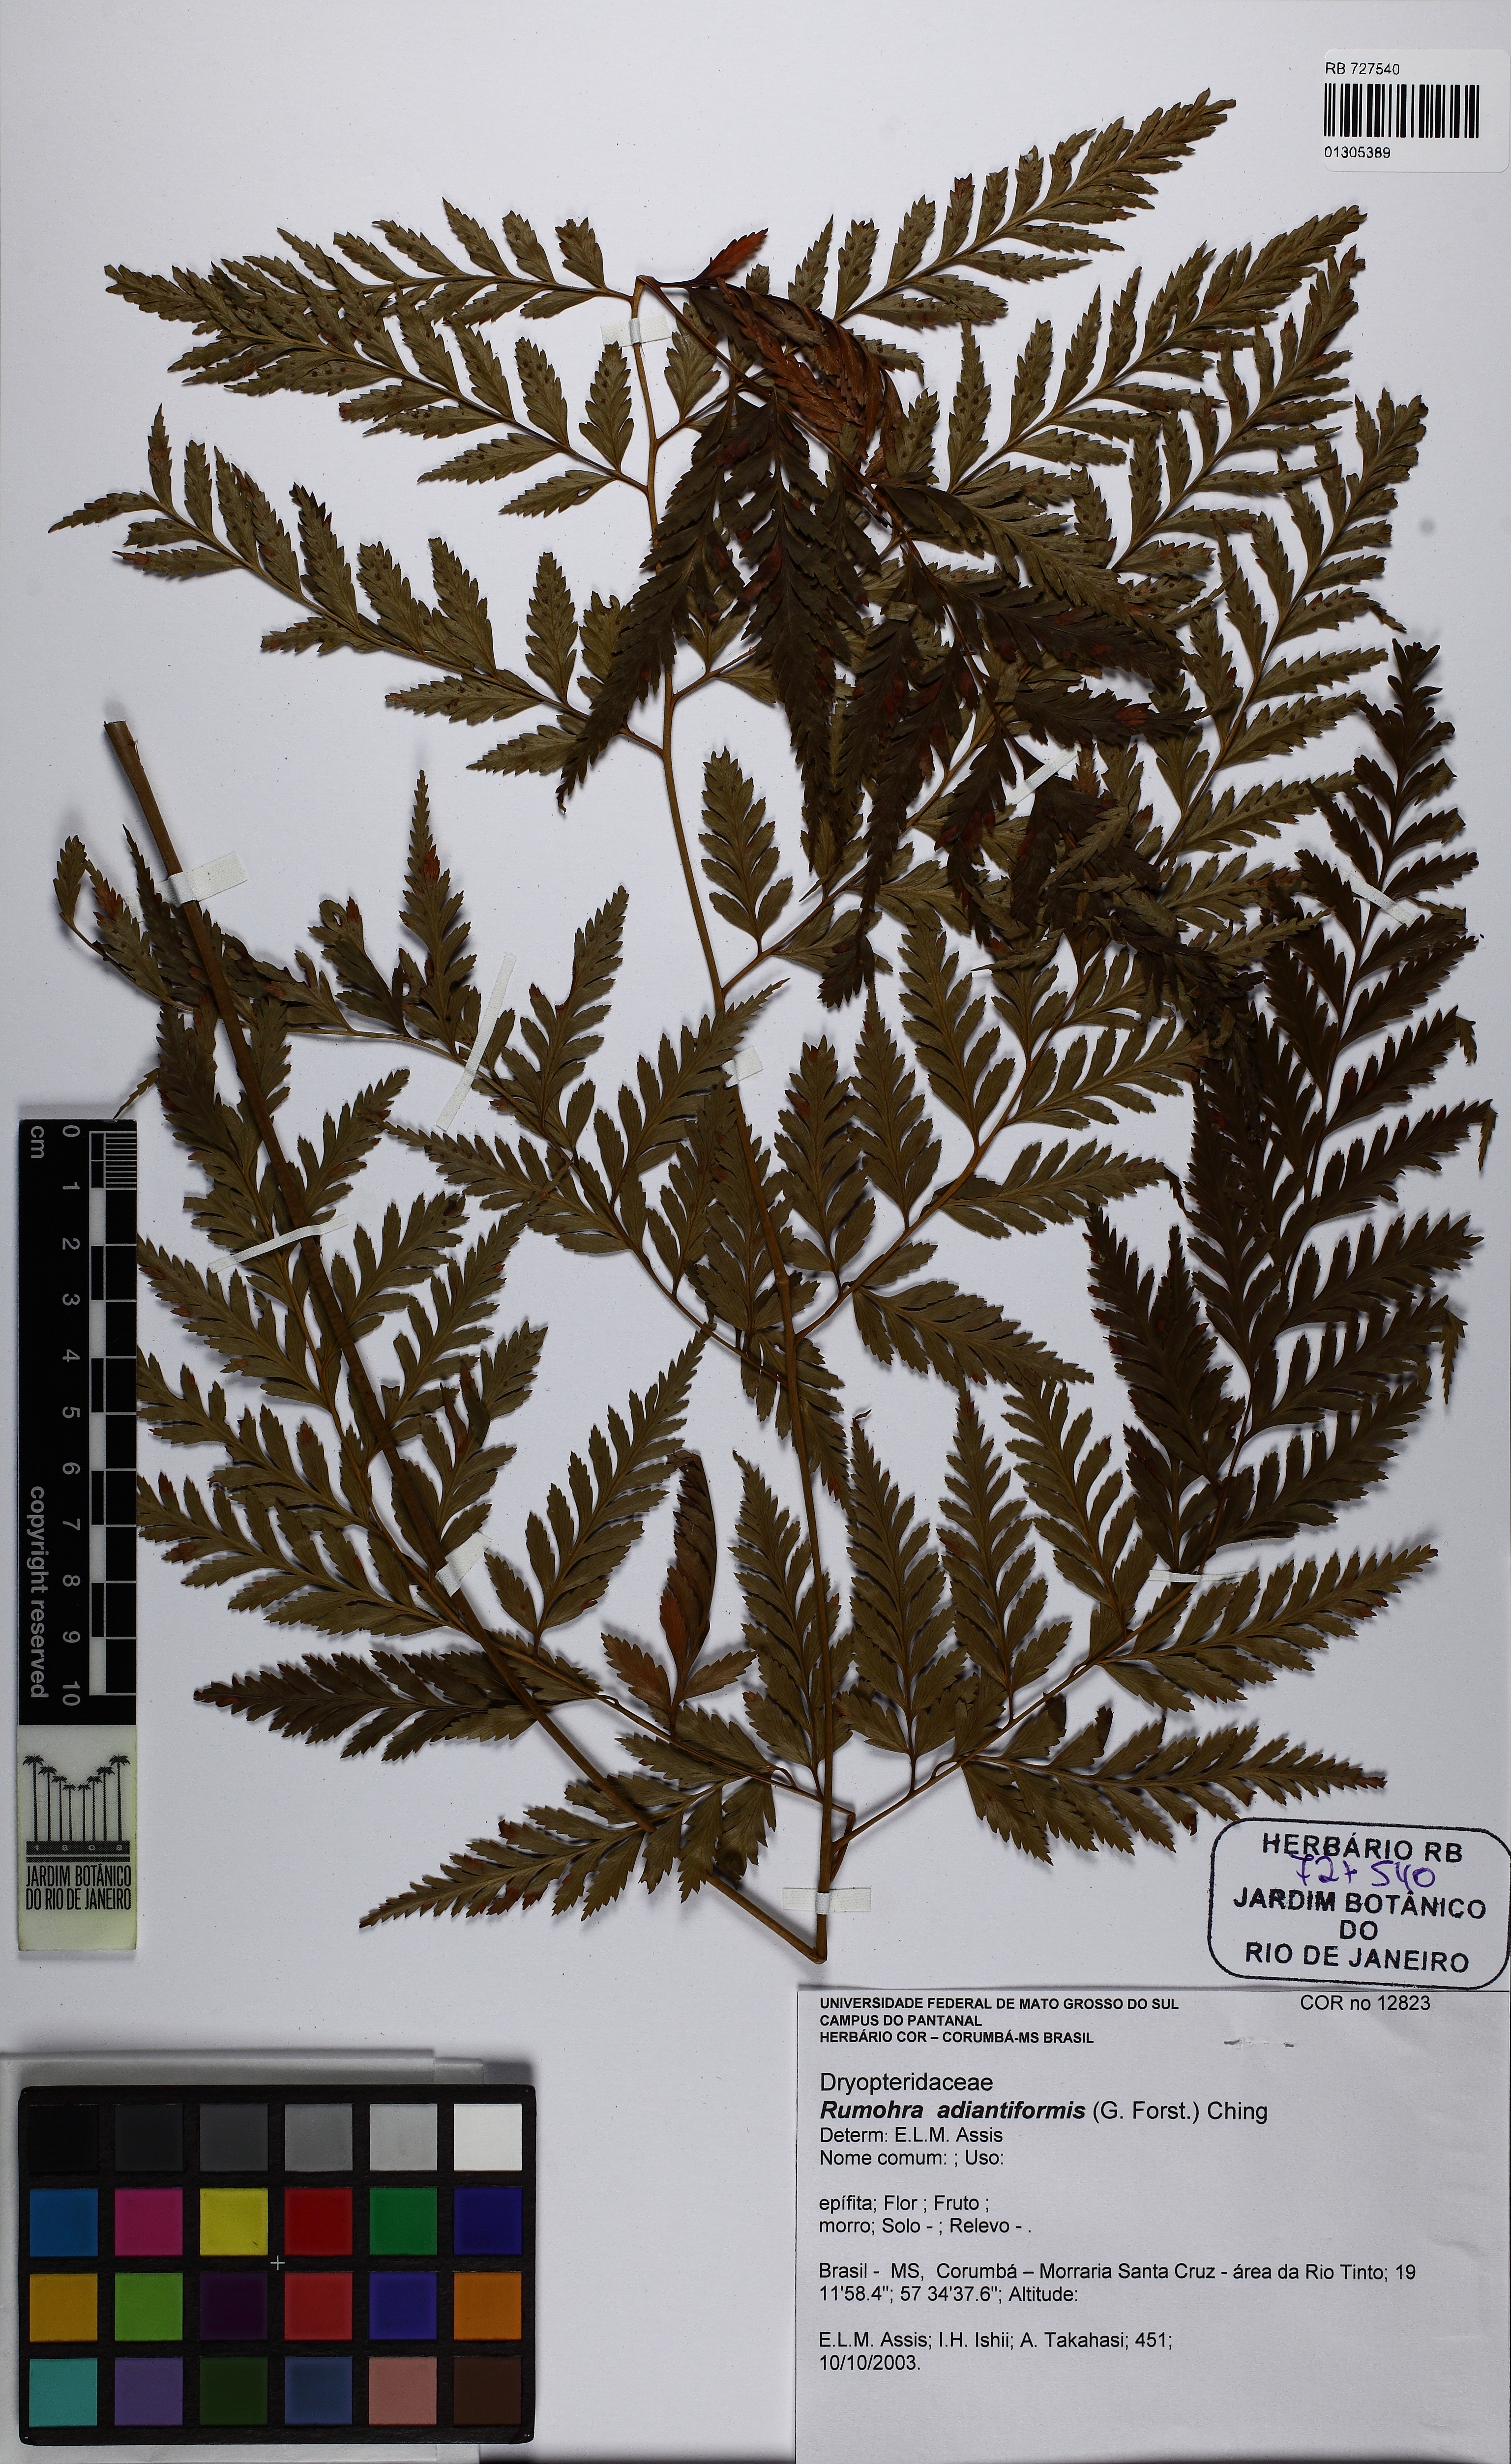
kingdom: Plantae
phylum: Tracheophyta
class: Polypodiopsida
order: Polypodiales
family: Dryopteridaceae
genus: Rumohra
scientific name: Rumohra adiantiformis
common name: Leather fern
